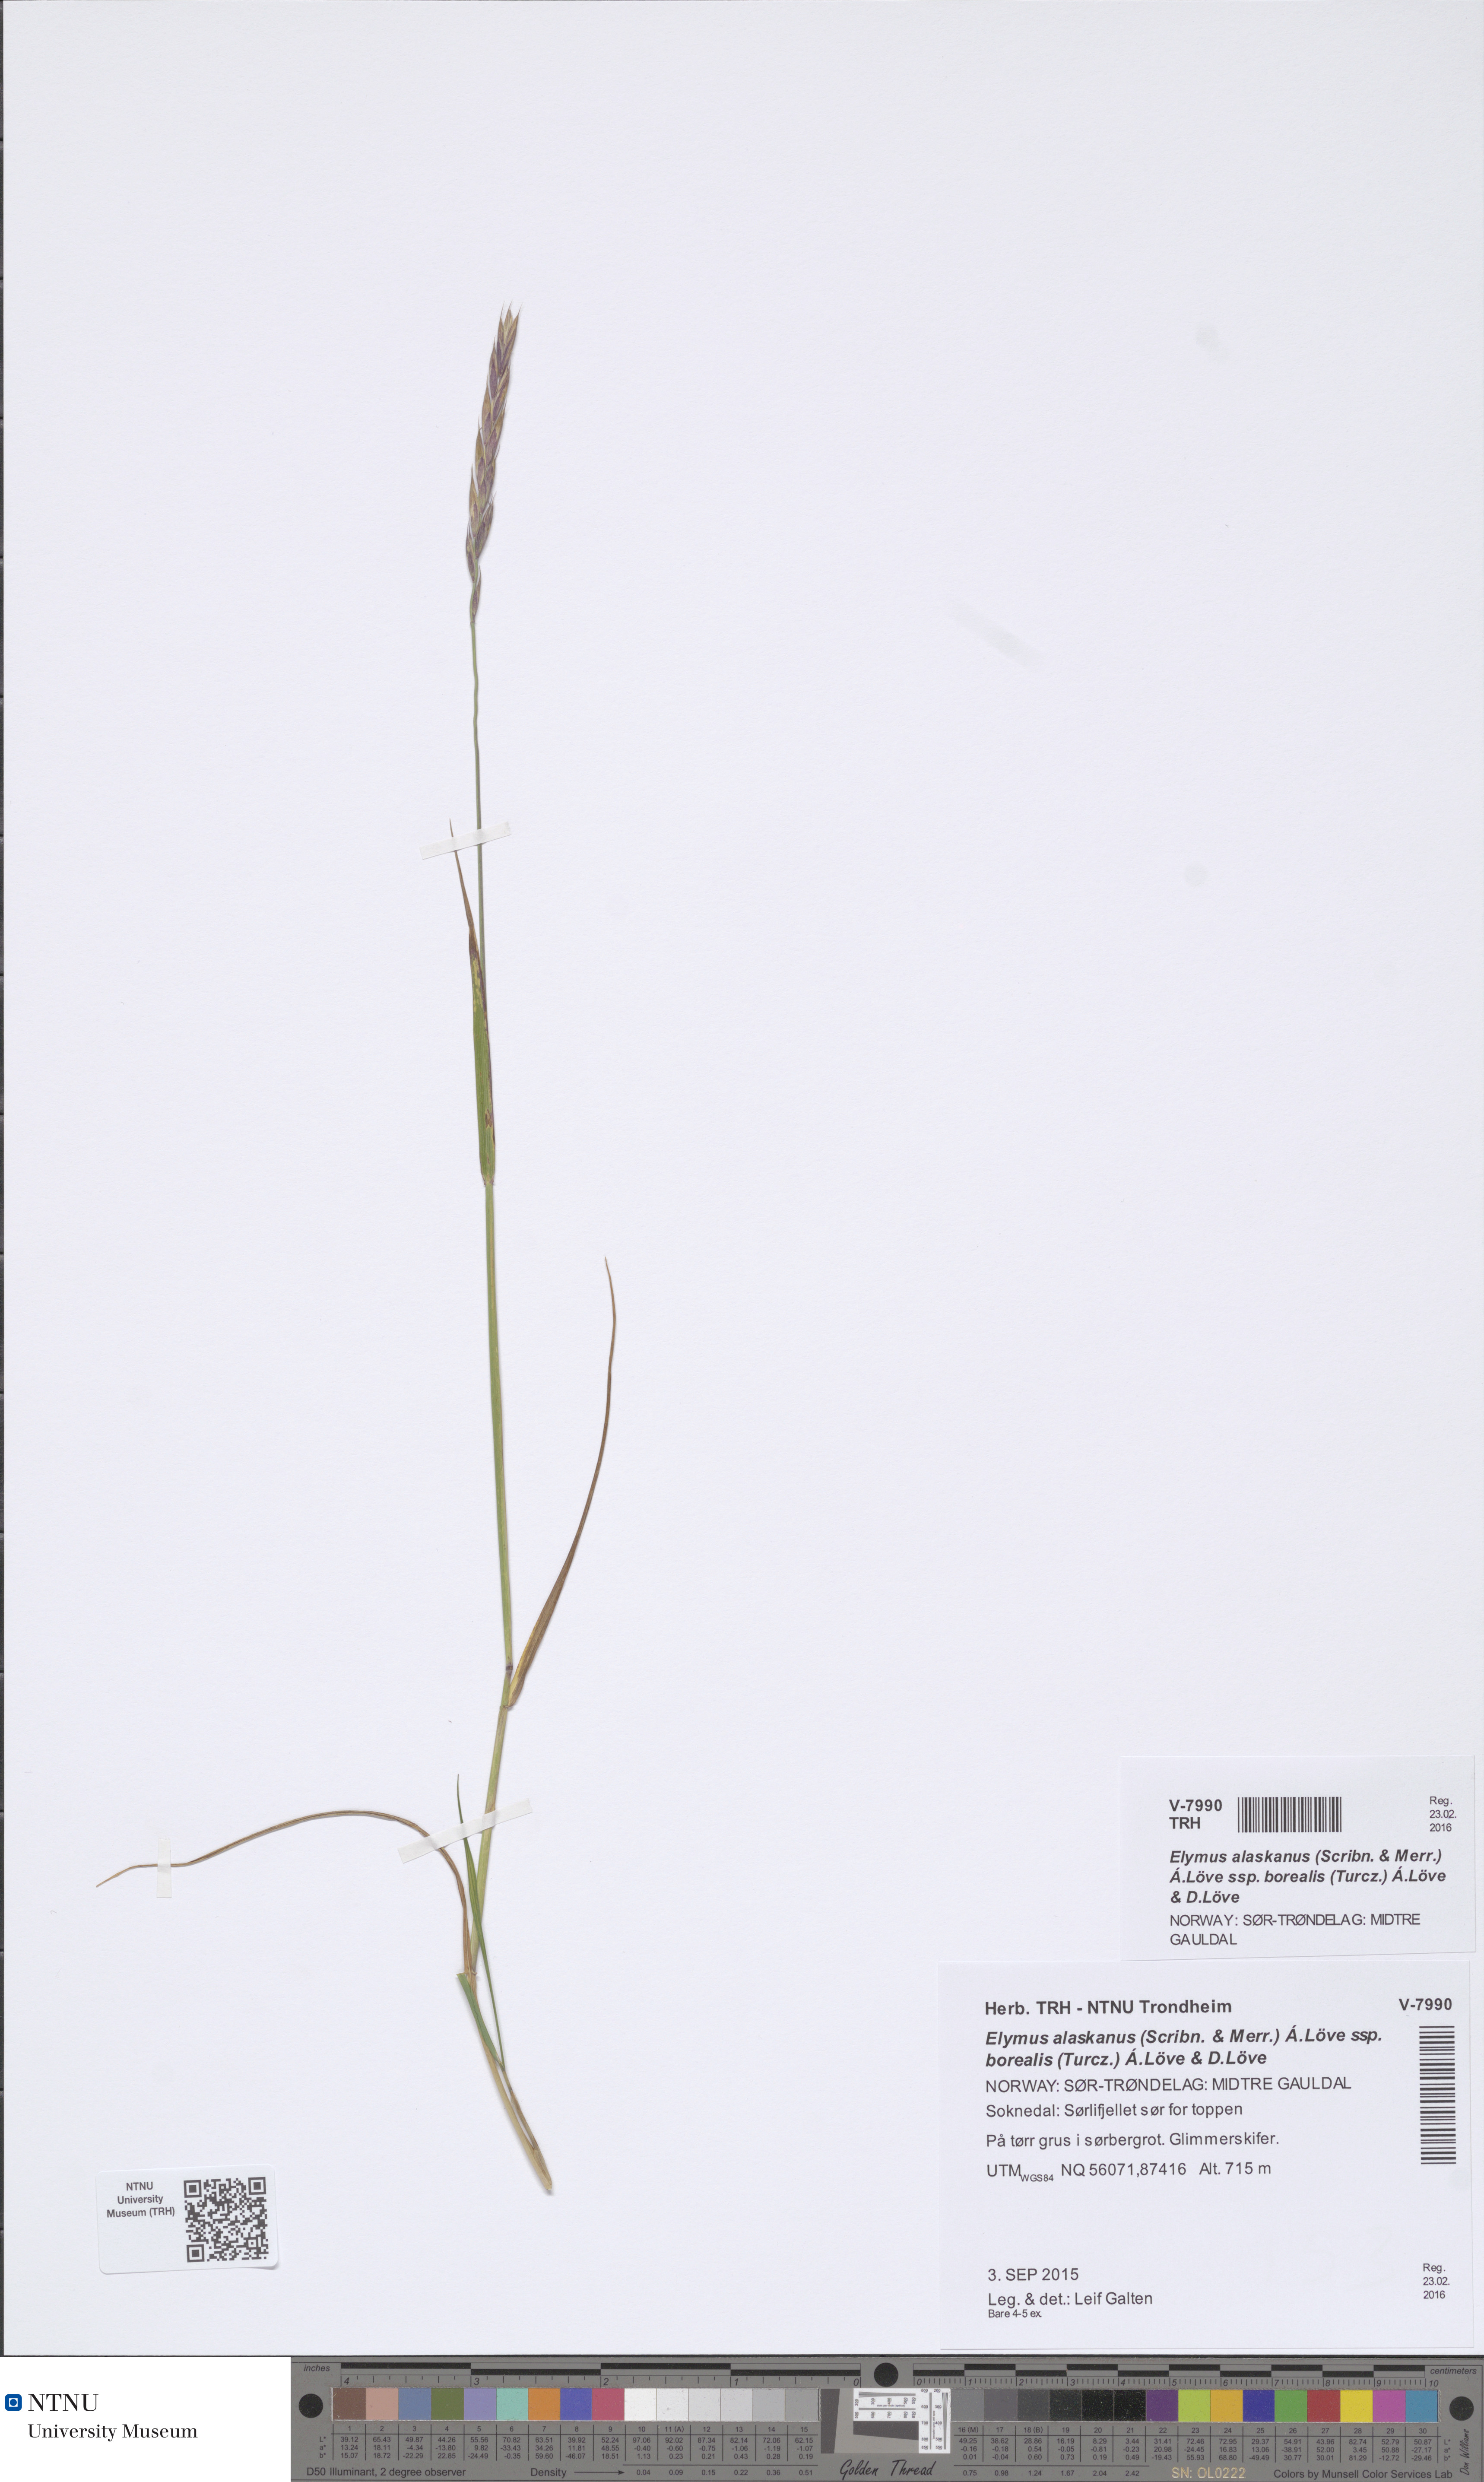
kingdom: Plantae
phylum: Tracheophyta
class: Liliopsida
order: Poales
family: Poaceae
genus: Elymus
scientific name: Elymus macrourus
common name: Northern wheatgrass
